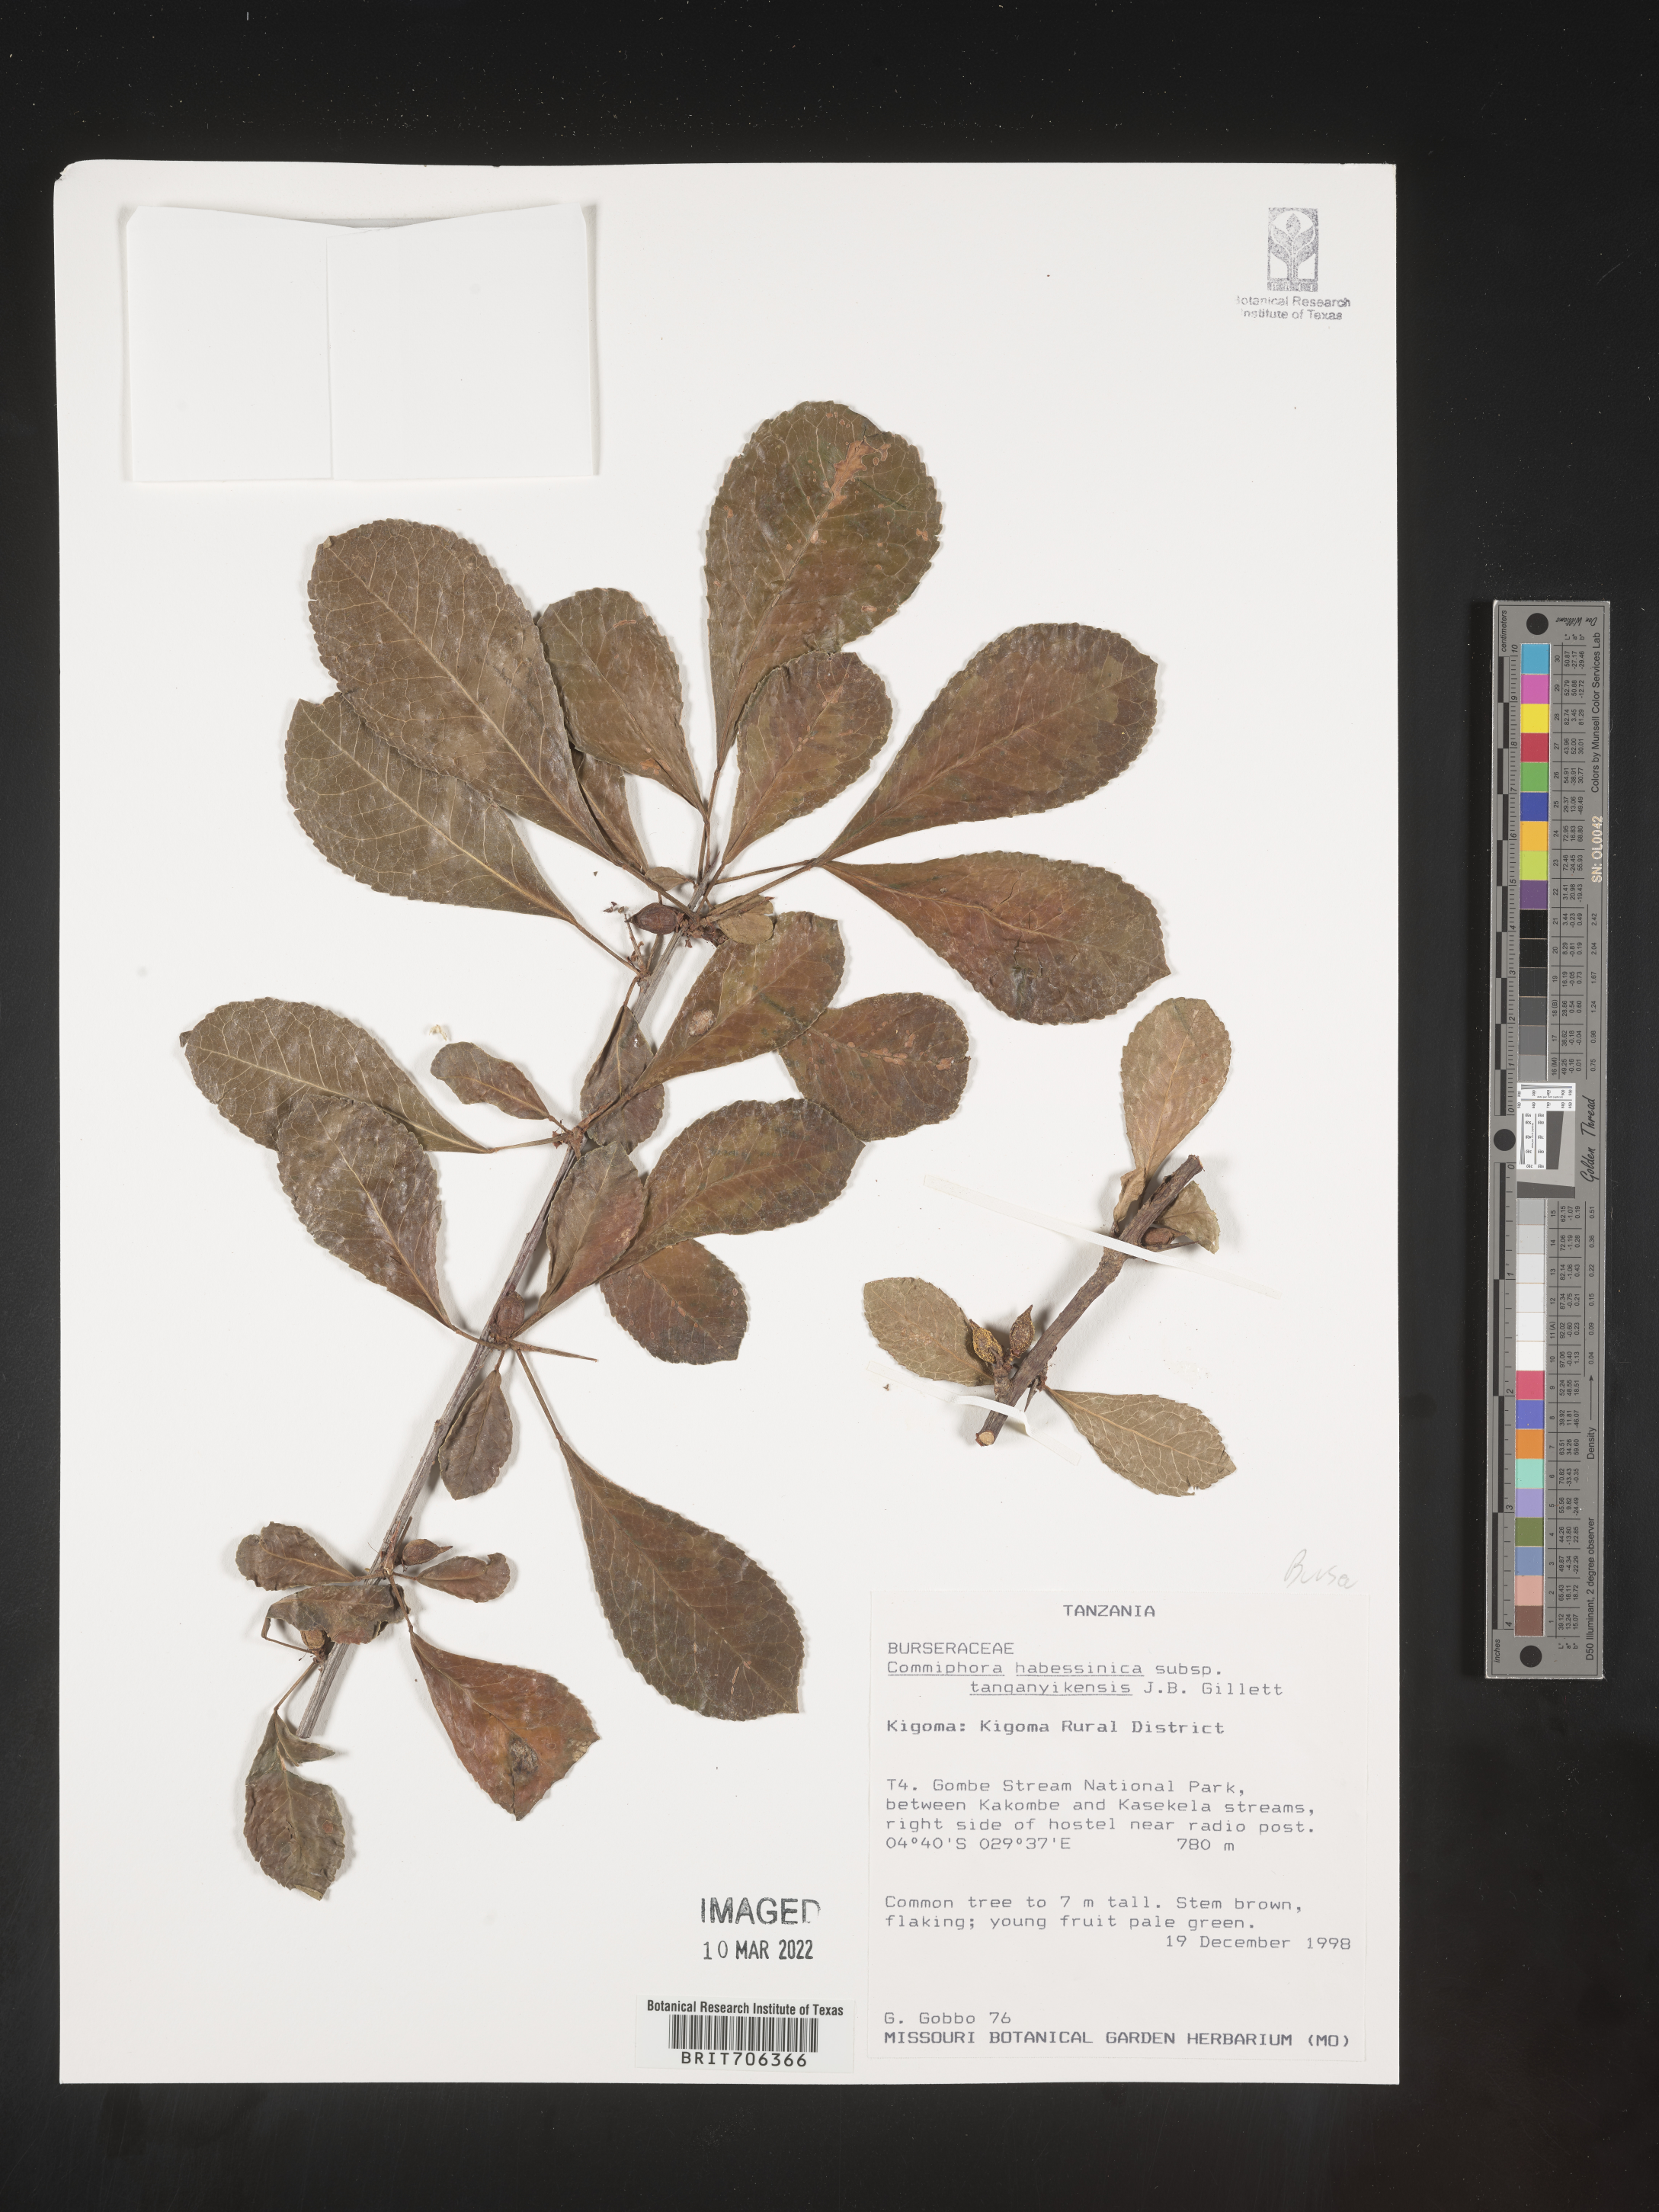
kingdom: Plantae
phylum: Tracheophyta
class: Magnoliopsida
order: Sapindales
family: Burseraceae
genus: Commiphora
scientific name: Commiphora
